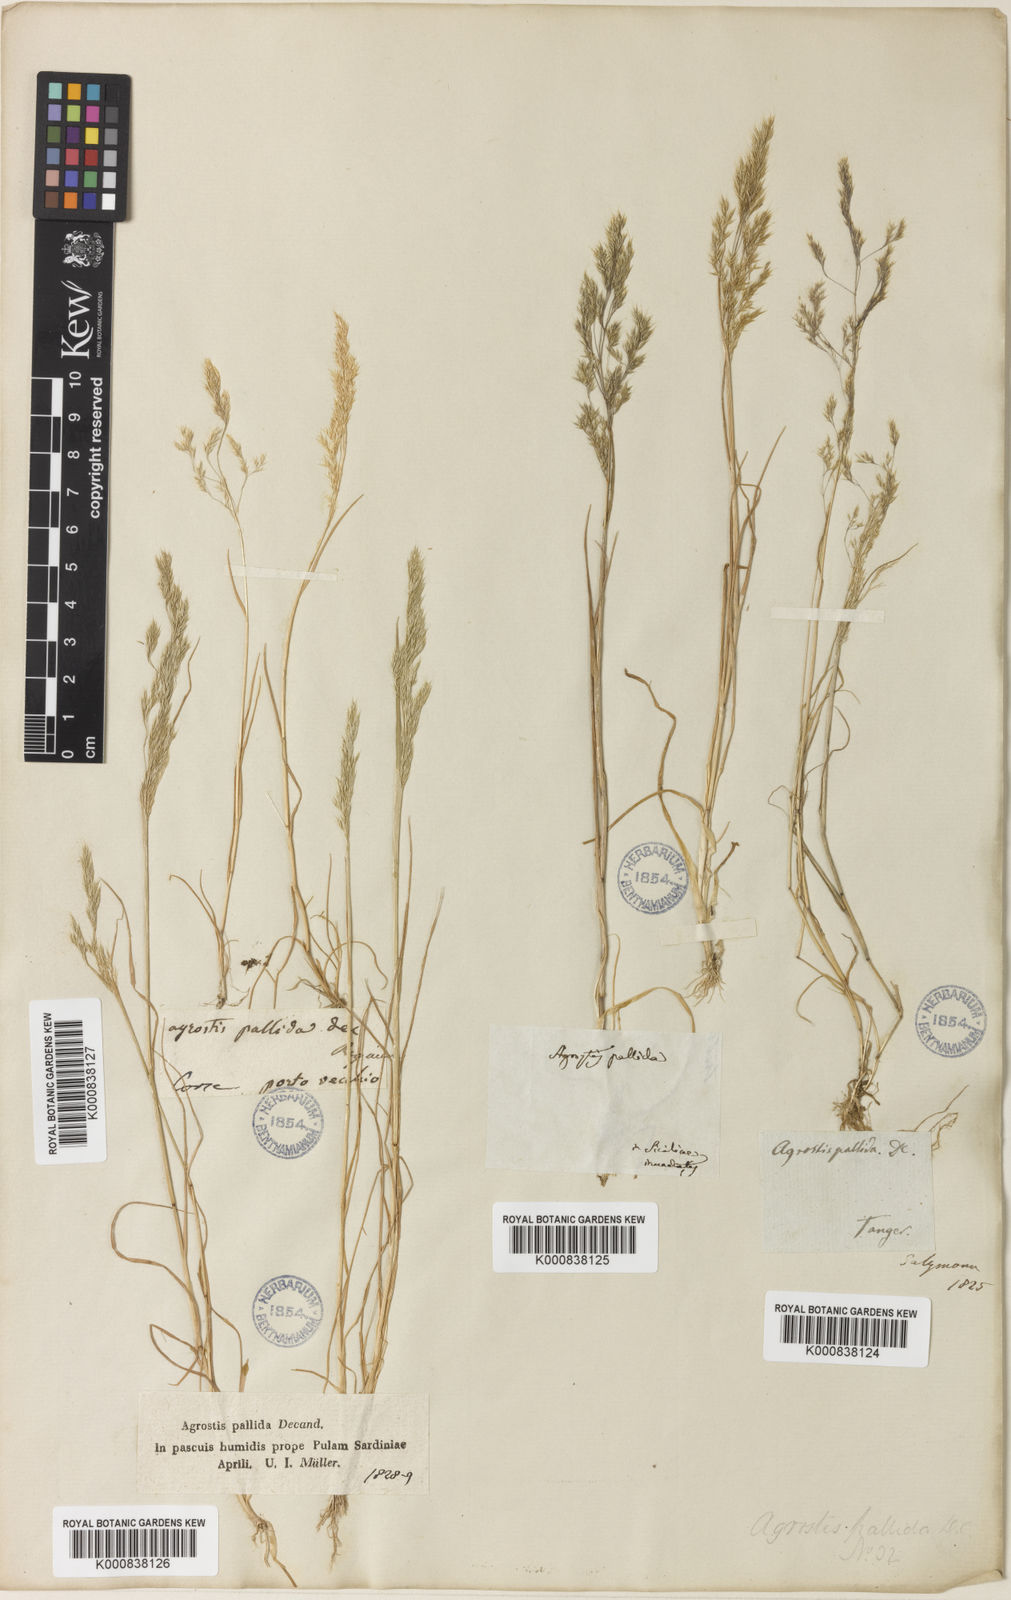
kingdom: Plantae
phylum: Tracheophyta
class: Liliopsida
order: Poales
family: Poaceae
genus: Agrostis
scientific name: Agrostis pourretii
